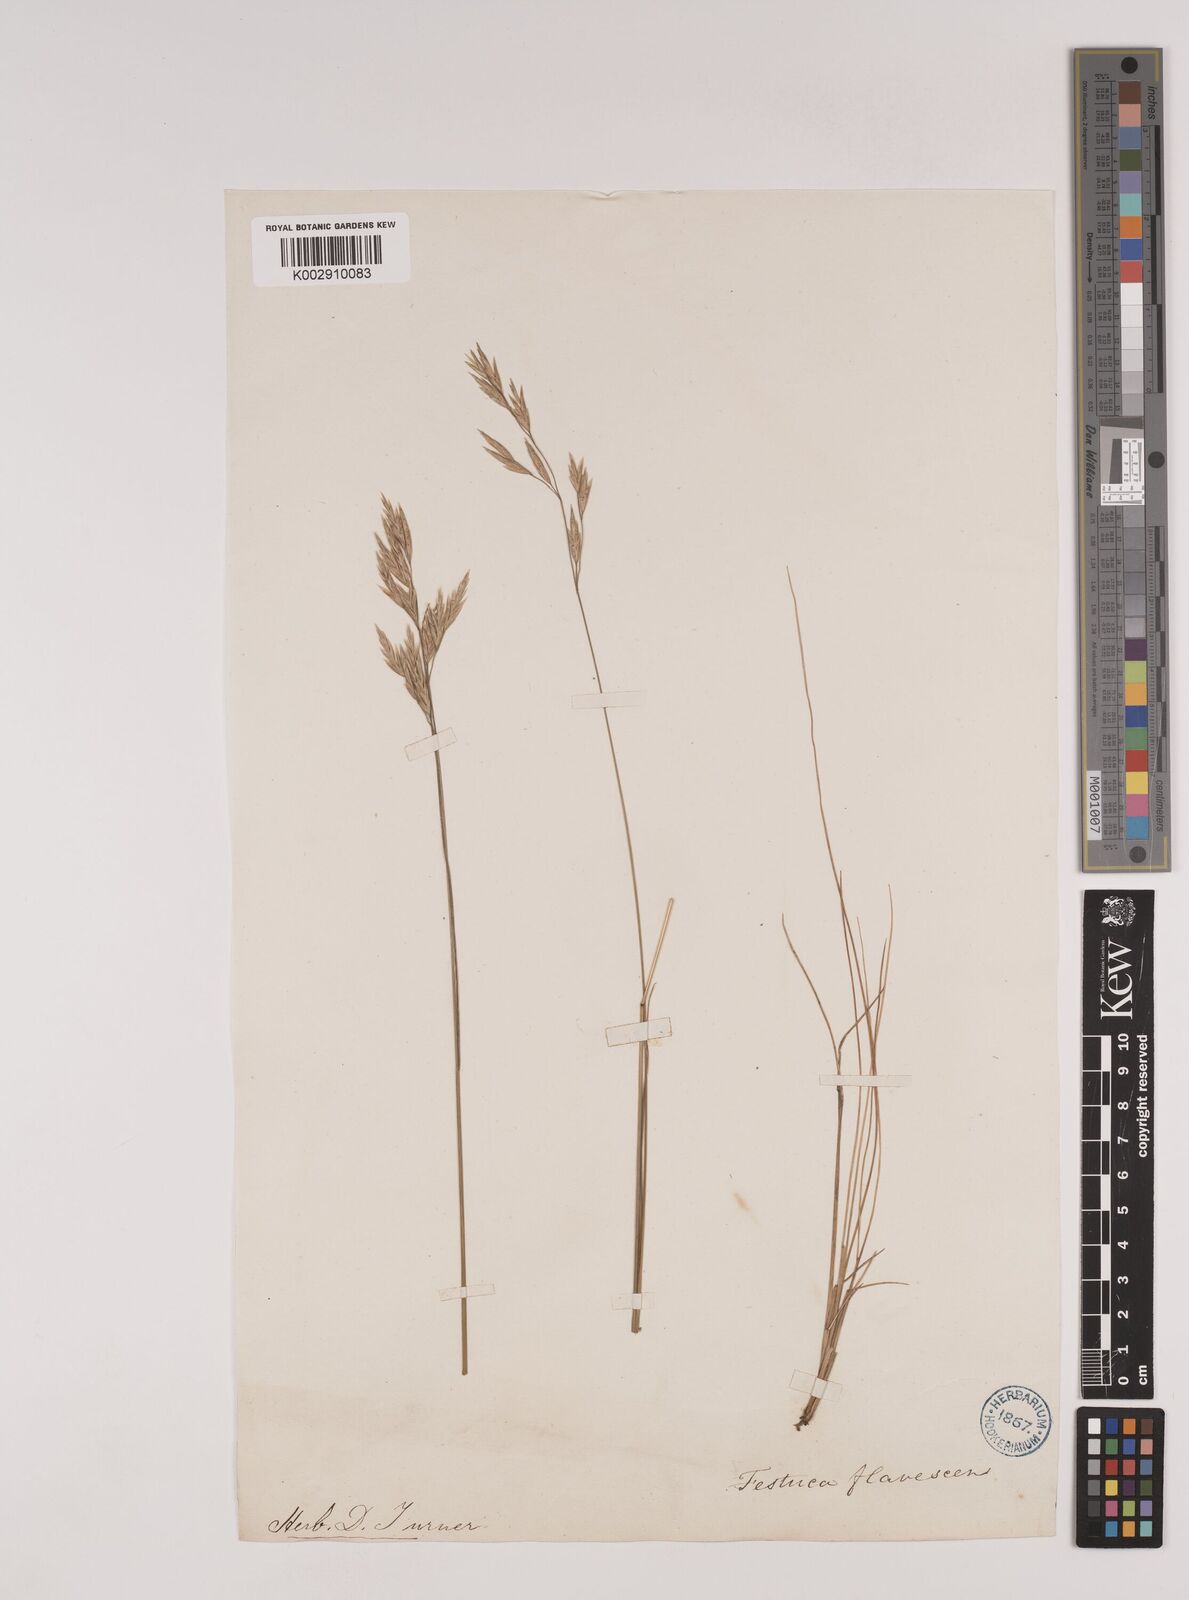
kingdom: Plantae
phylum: Tracheophyta
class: Liliopsida
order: Poales
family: Poaceae
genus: Festuca
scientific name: Festuca flavescens
